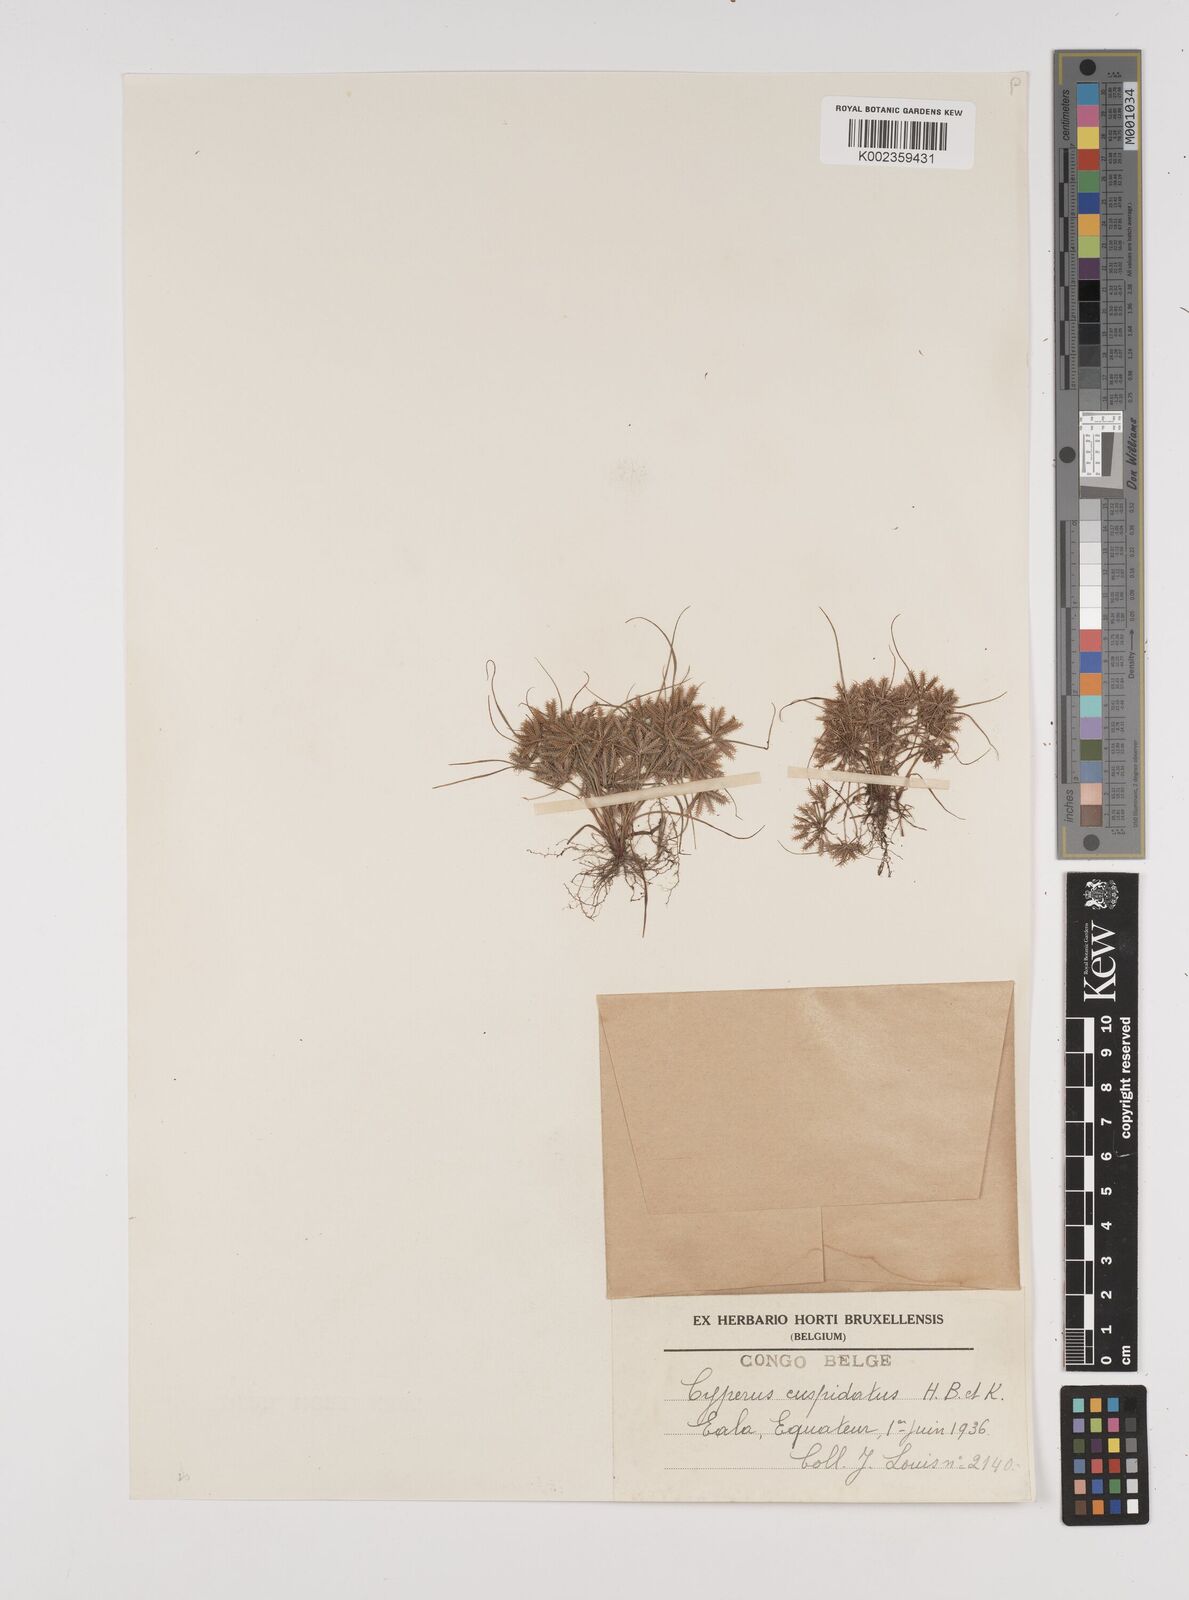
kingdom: Plantae
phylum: Tracheophyta
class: Liliopsida
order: Poales
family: Cyperaceae
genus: Cyperus
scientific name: Cyperus cuspidatus
